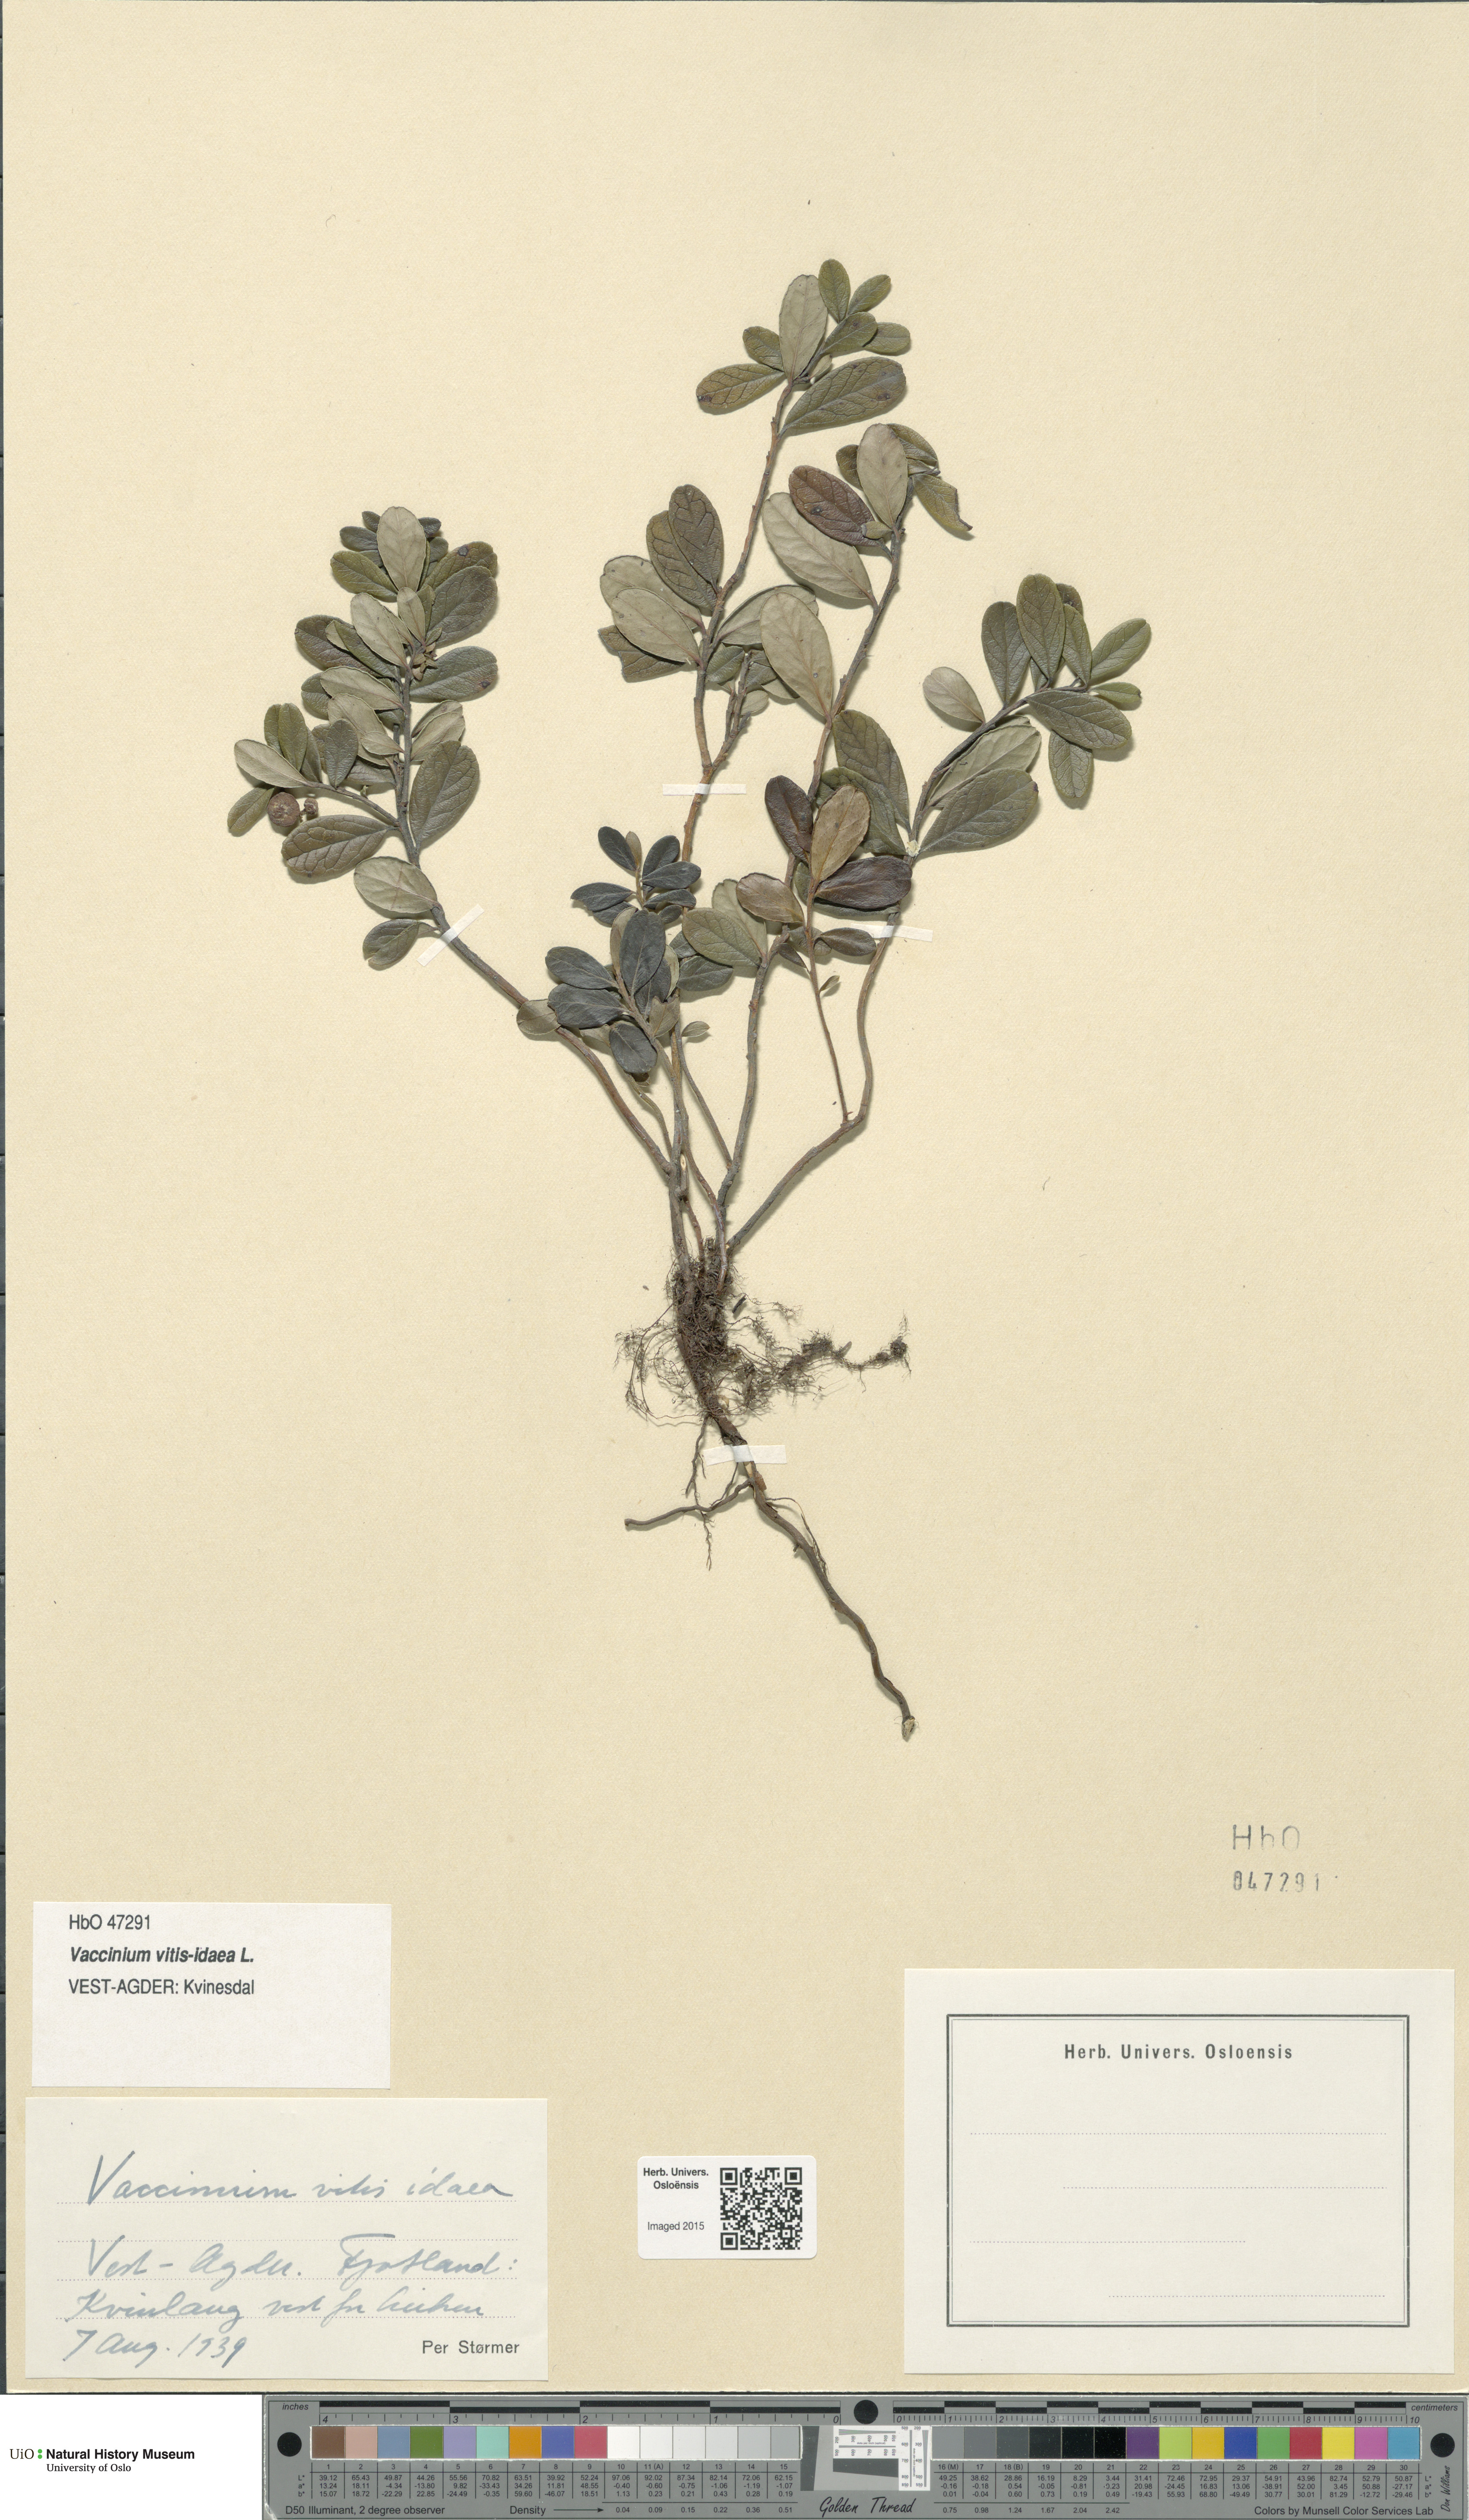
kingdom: Plantae
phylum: Tracheophyta
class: Magnoliopsida
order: Ericales
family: Ericaceae
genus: Vaccinium
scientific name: Vaccinium vitis-idaea
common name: Cowberry
